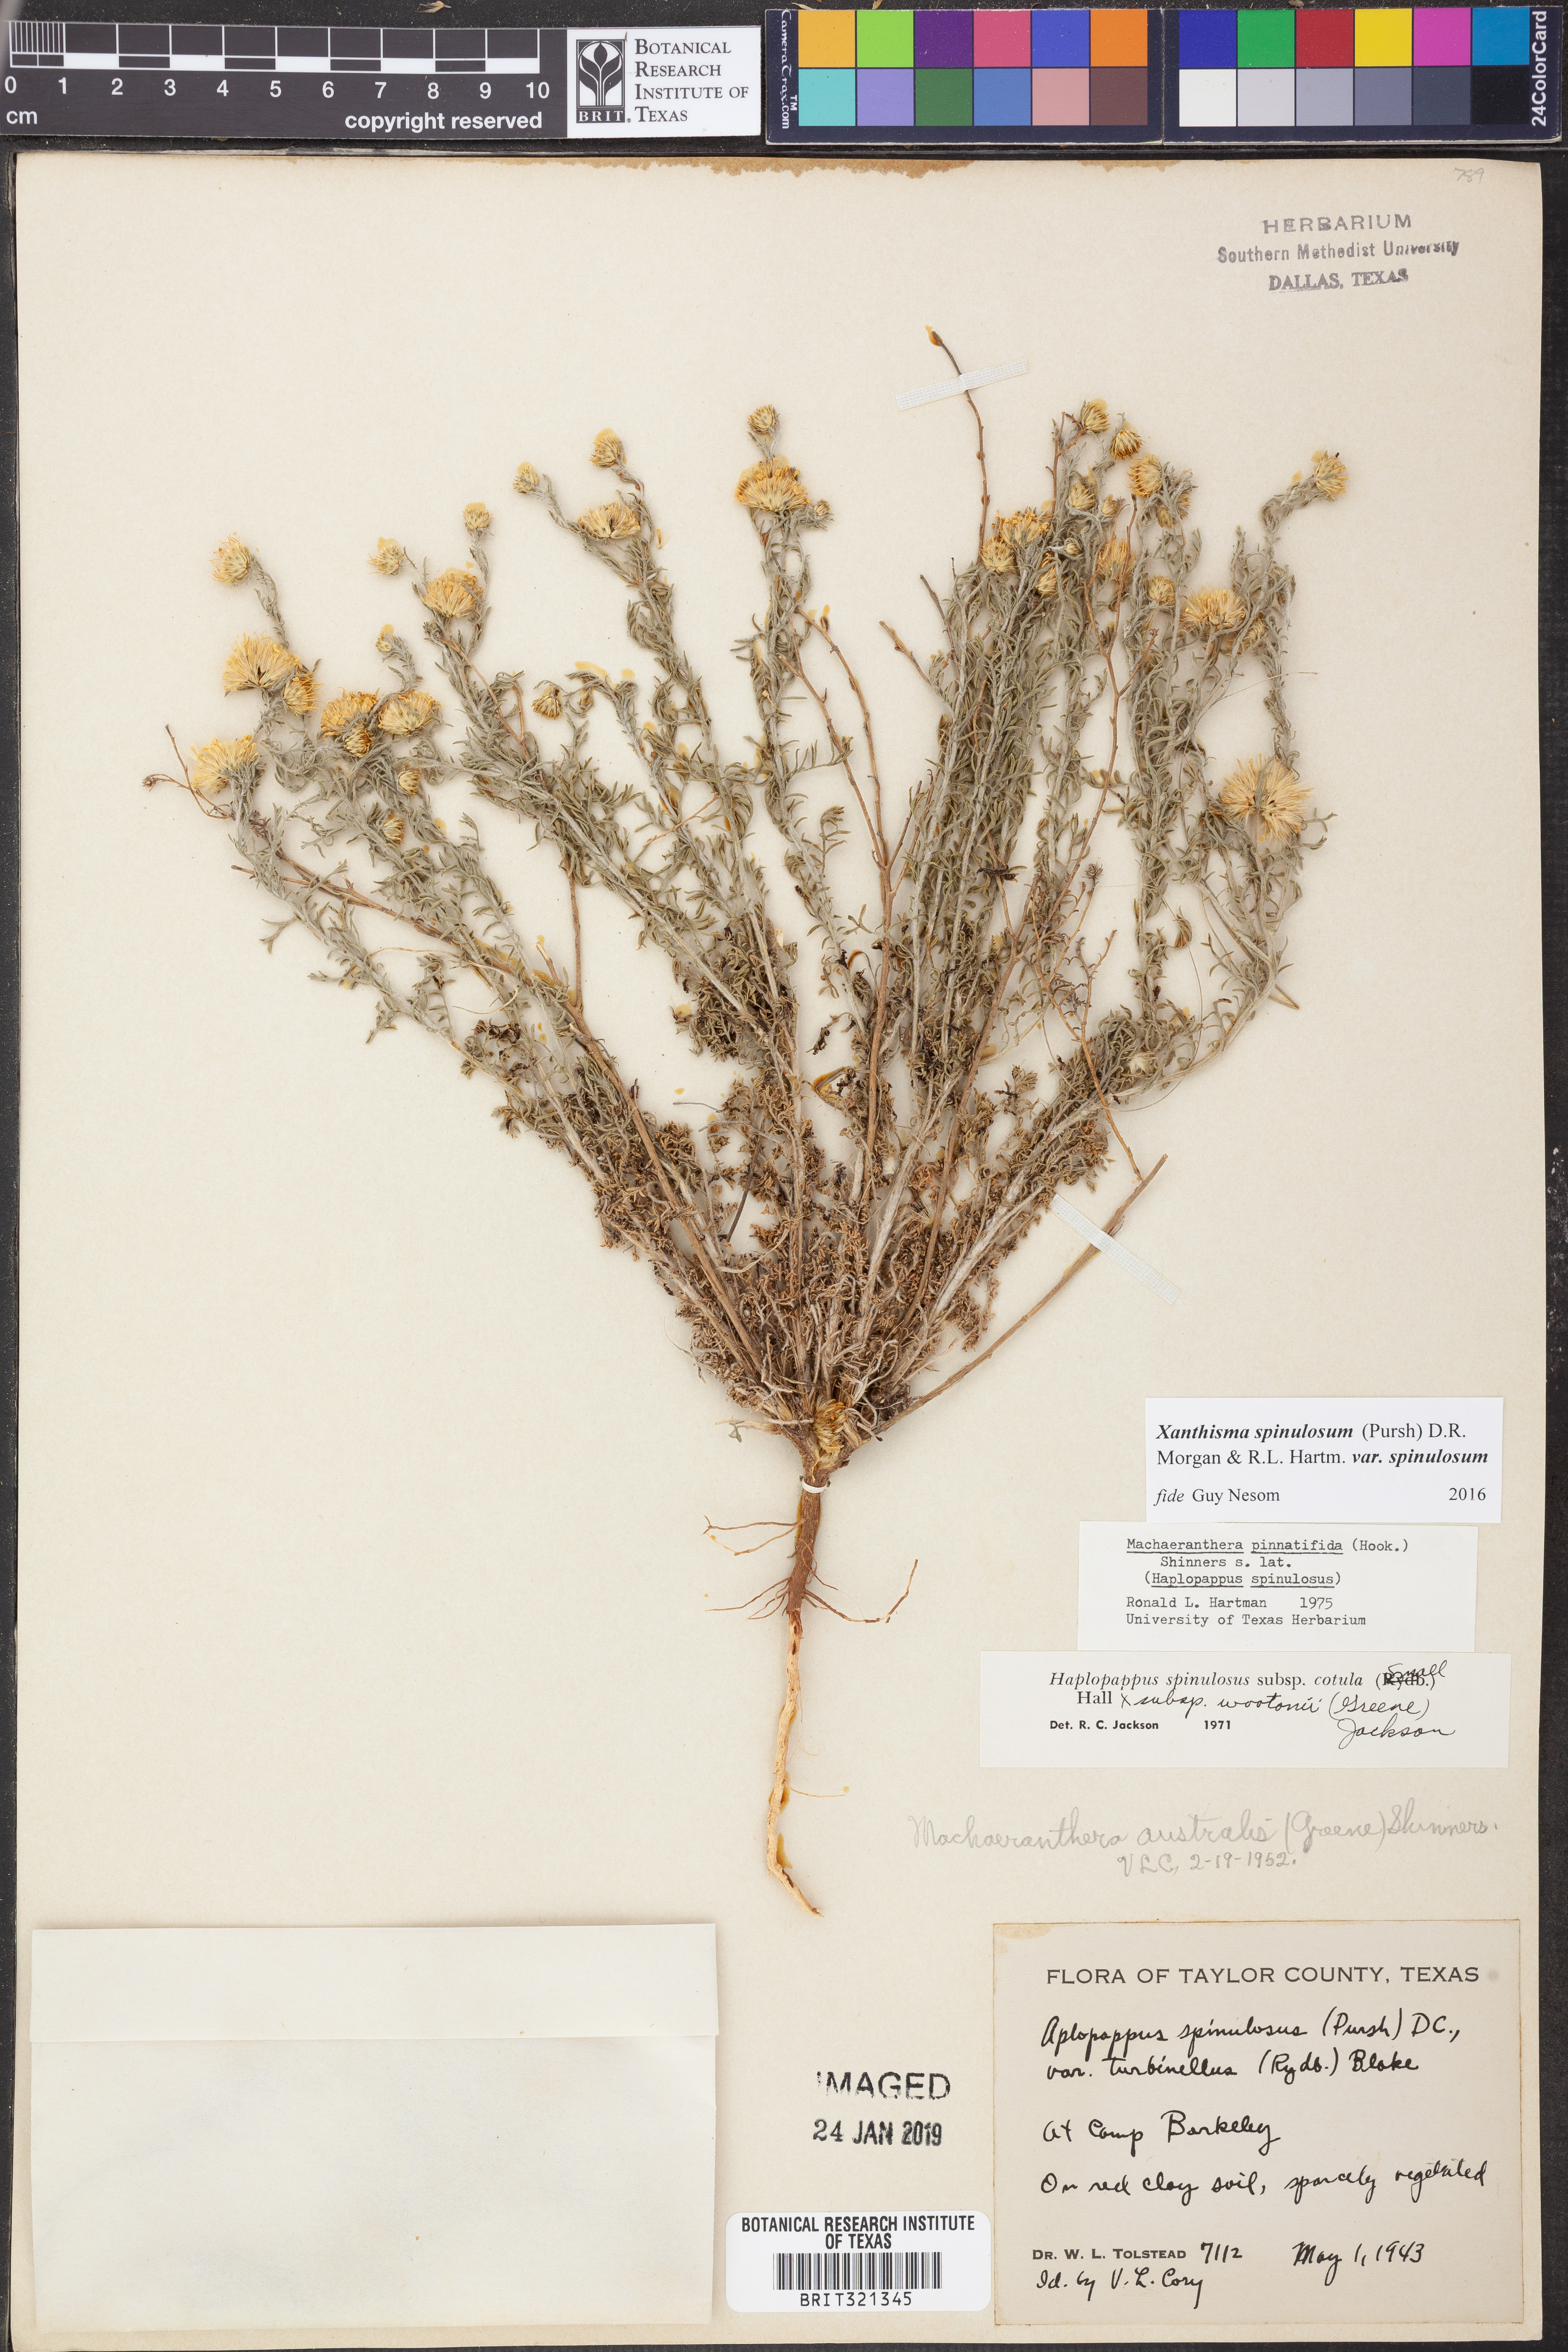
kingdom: Plantae
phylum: Tracheophyta
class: Magnoliopsida
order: Asterales
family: Asteraceae
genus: Xanthisma
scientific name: Xanthisma spinulosum
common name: Spiny goldenweed
